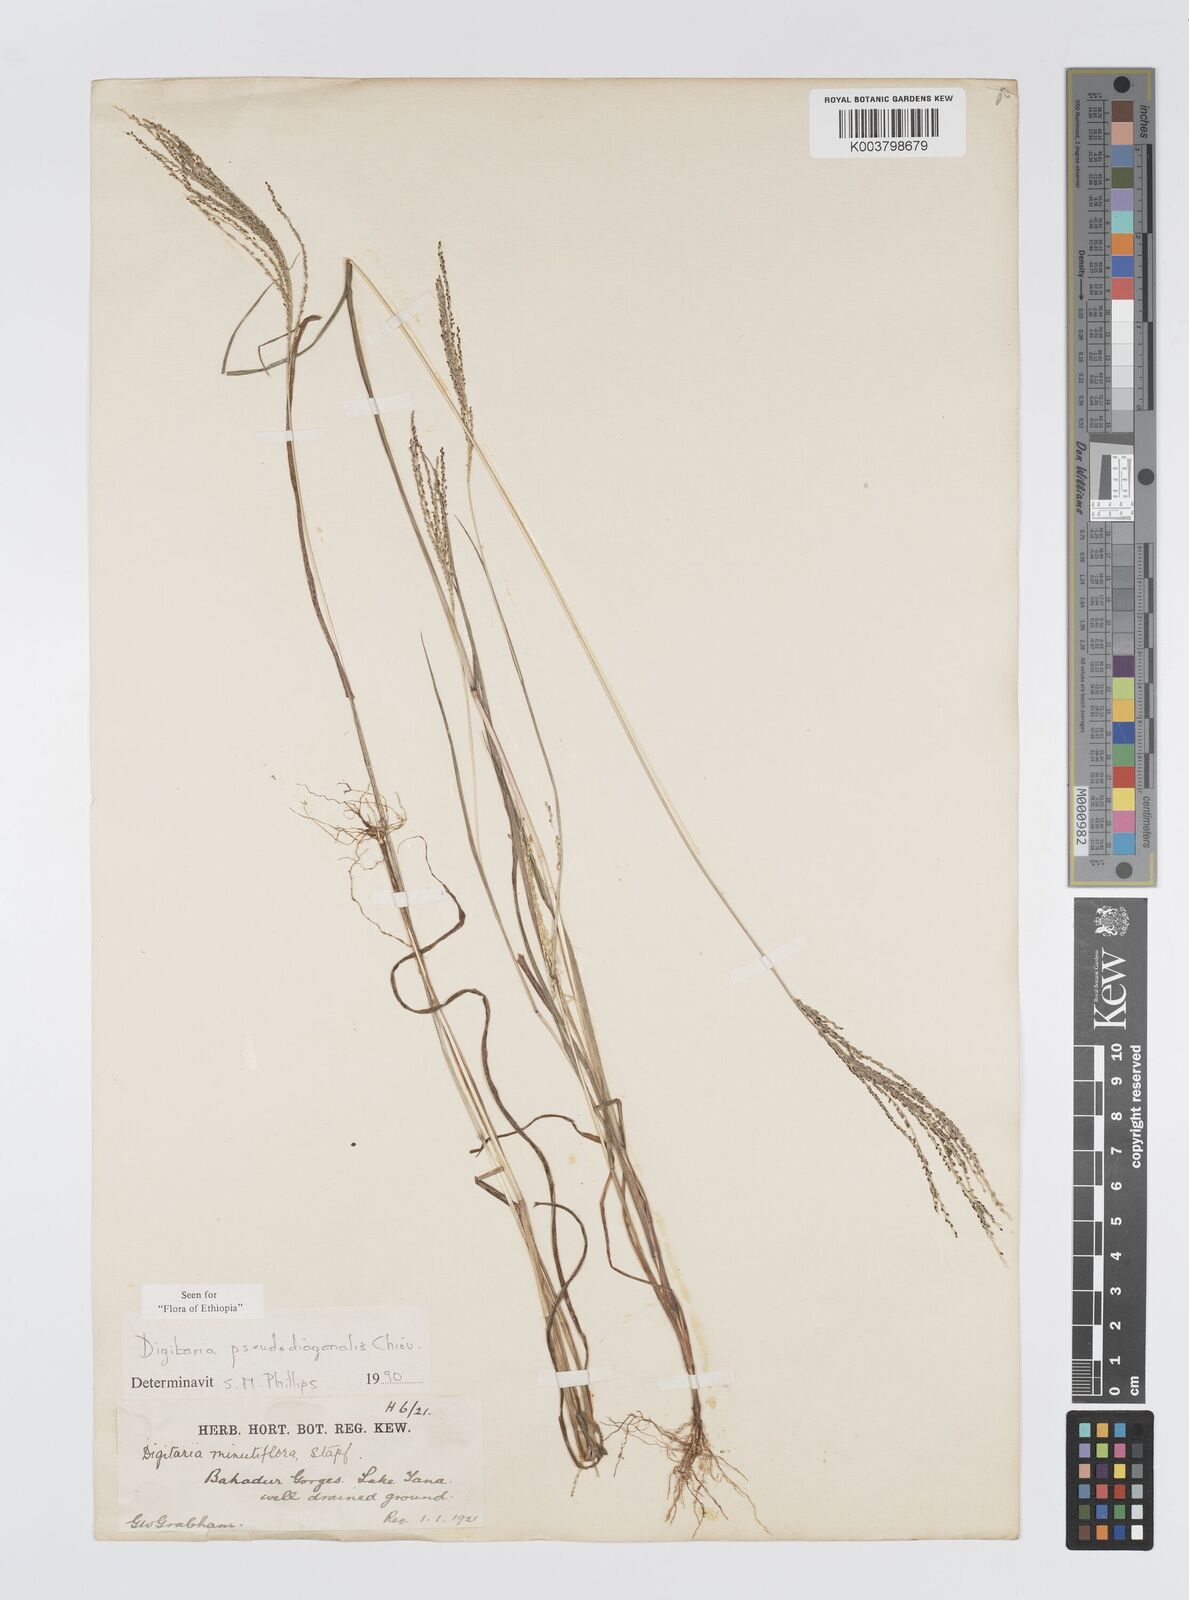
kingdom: Plantae
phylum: Tracheophyta
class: Liliopsida
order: Poales
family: Poaceae
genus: Digitaria
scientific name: Digitaria pseudodiagonalis
